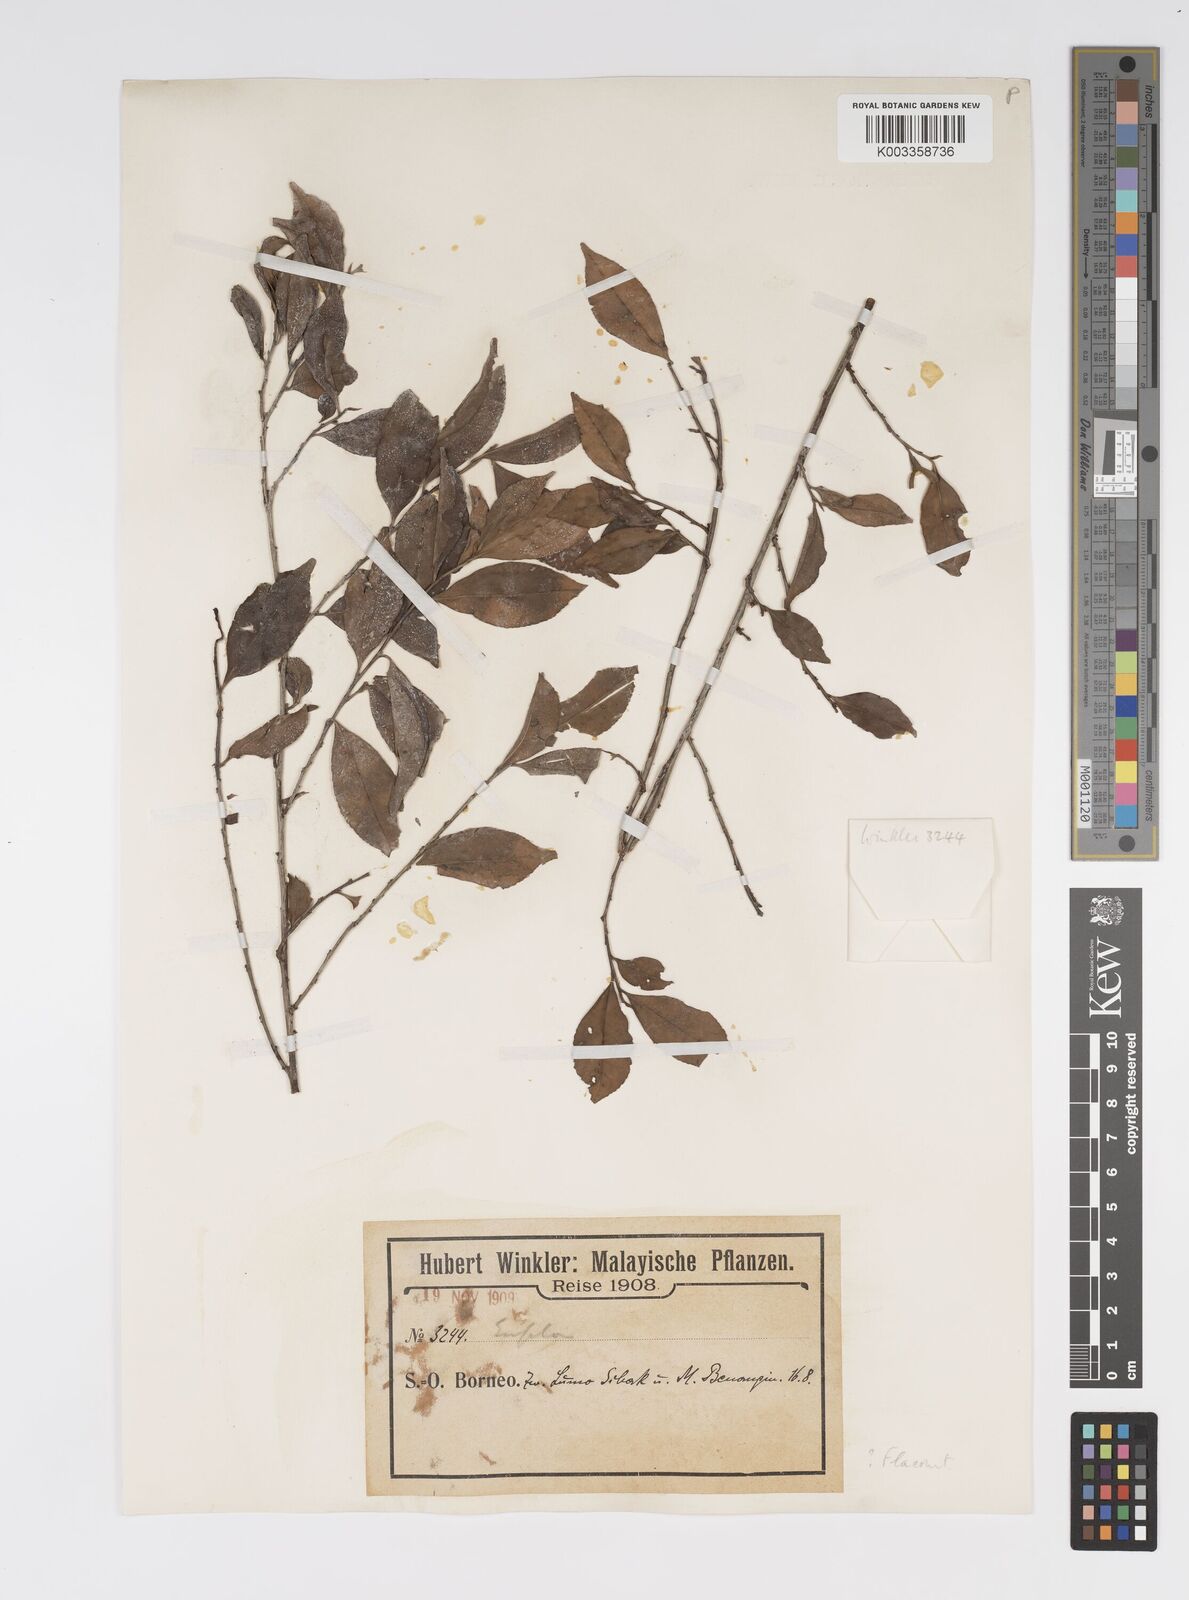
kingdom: Plantae
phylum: Tracheophyta
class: Magnoliopsida
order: Malpighiales
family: Salicaceae
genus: Xylosma
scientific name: Xylosma
